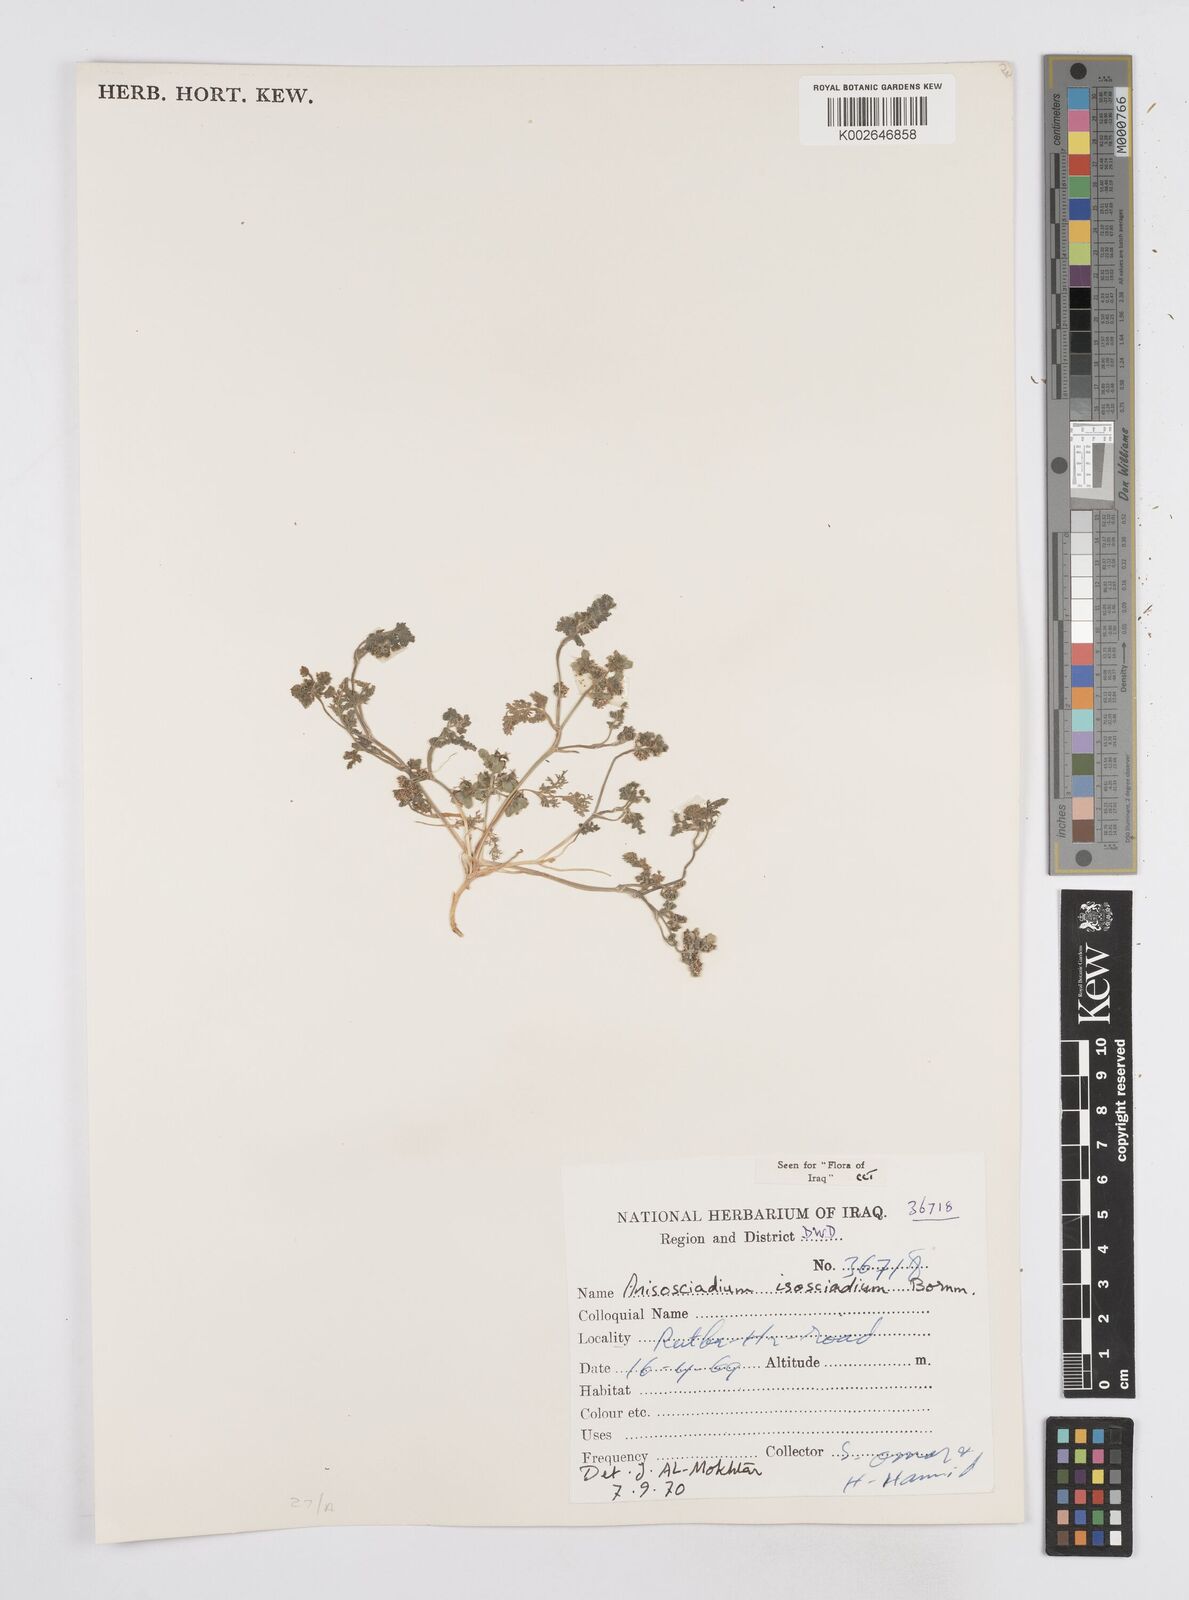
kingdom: Plantae
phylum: Tracheophyta
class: Magnoliopsida
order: Apiales
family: Apiaceae
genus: Anisosciadium
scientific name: Anisosciadium isosciadium
